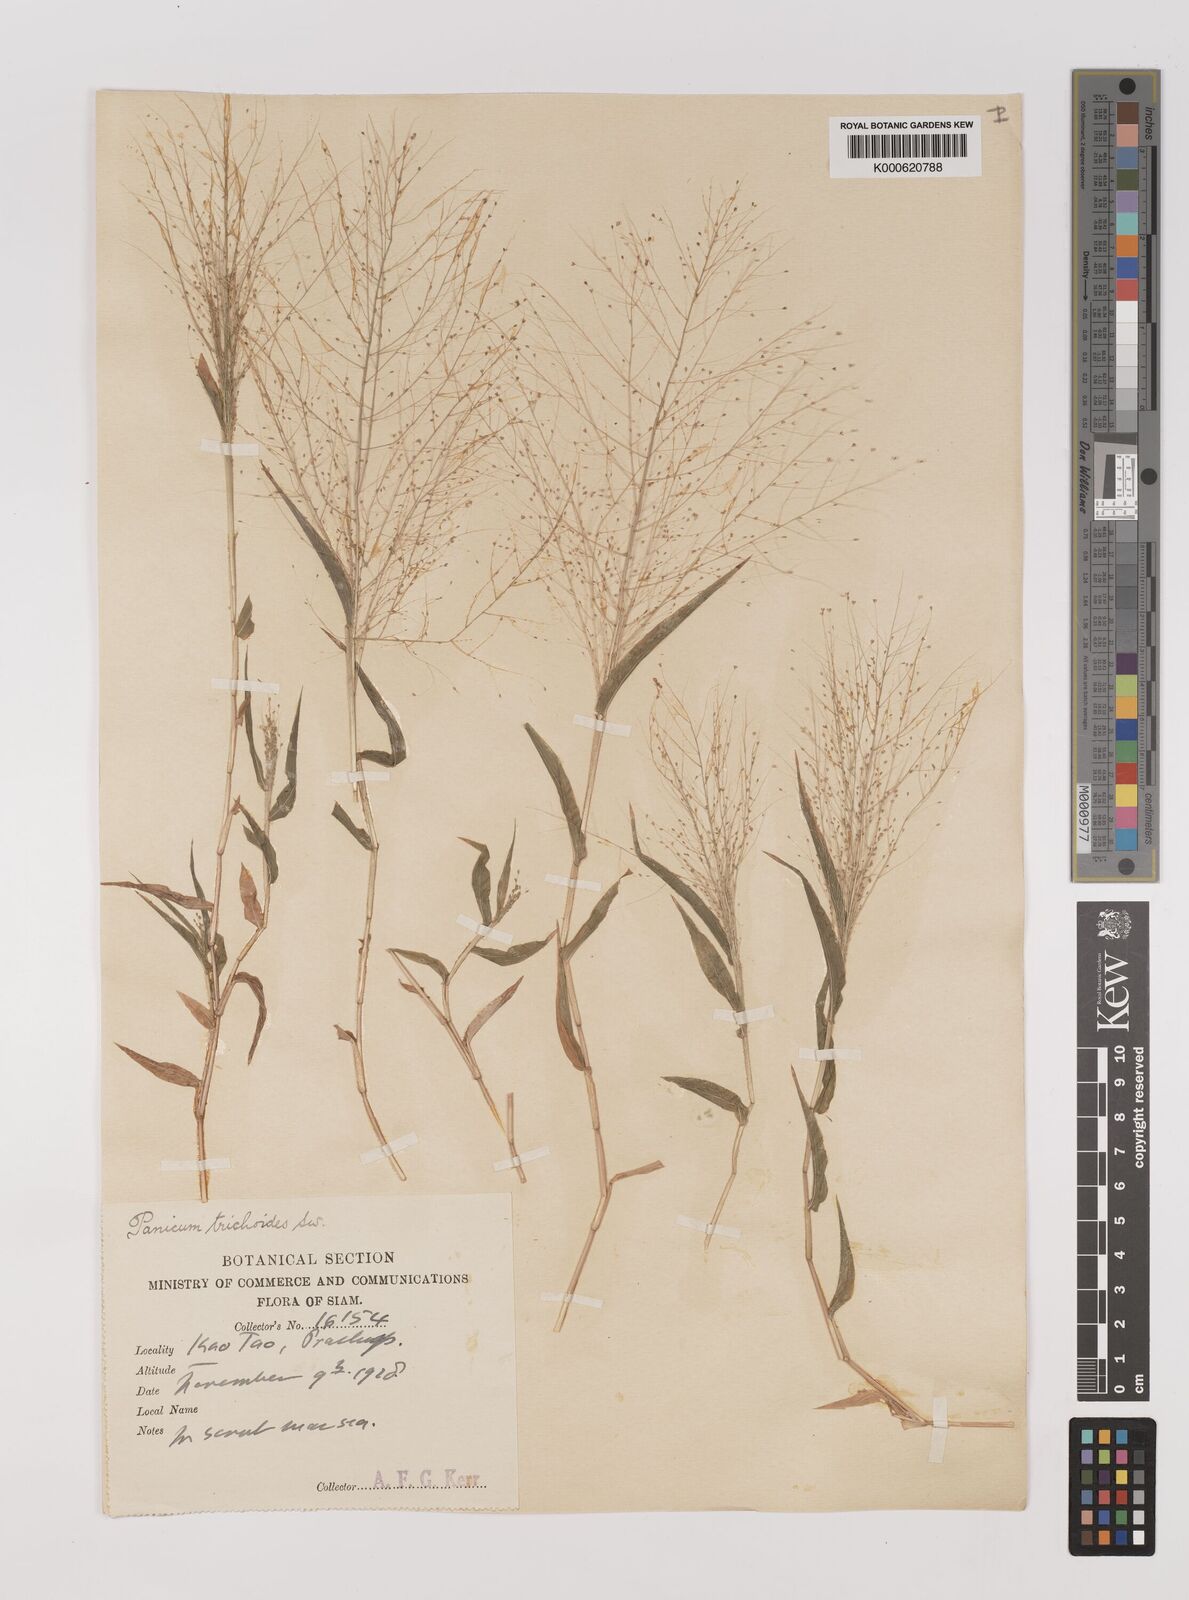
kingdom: Plantae
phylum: Tracheophyta
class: Liliopsida
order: Poales
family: Poaceae
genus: Panicum
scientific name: Panicum trichoides
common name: Tickle grass
